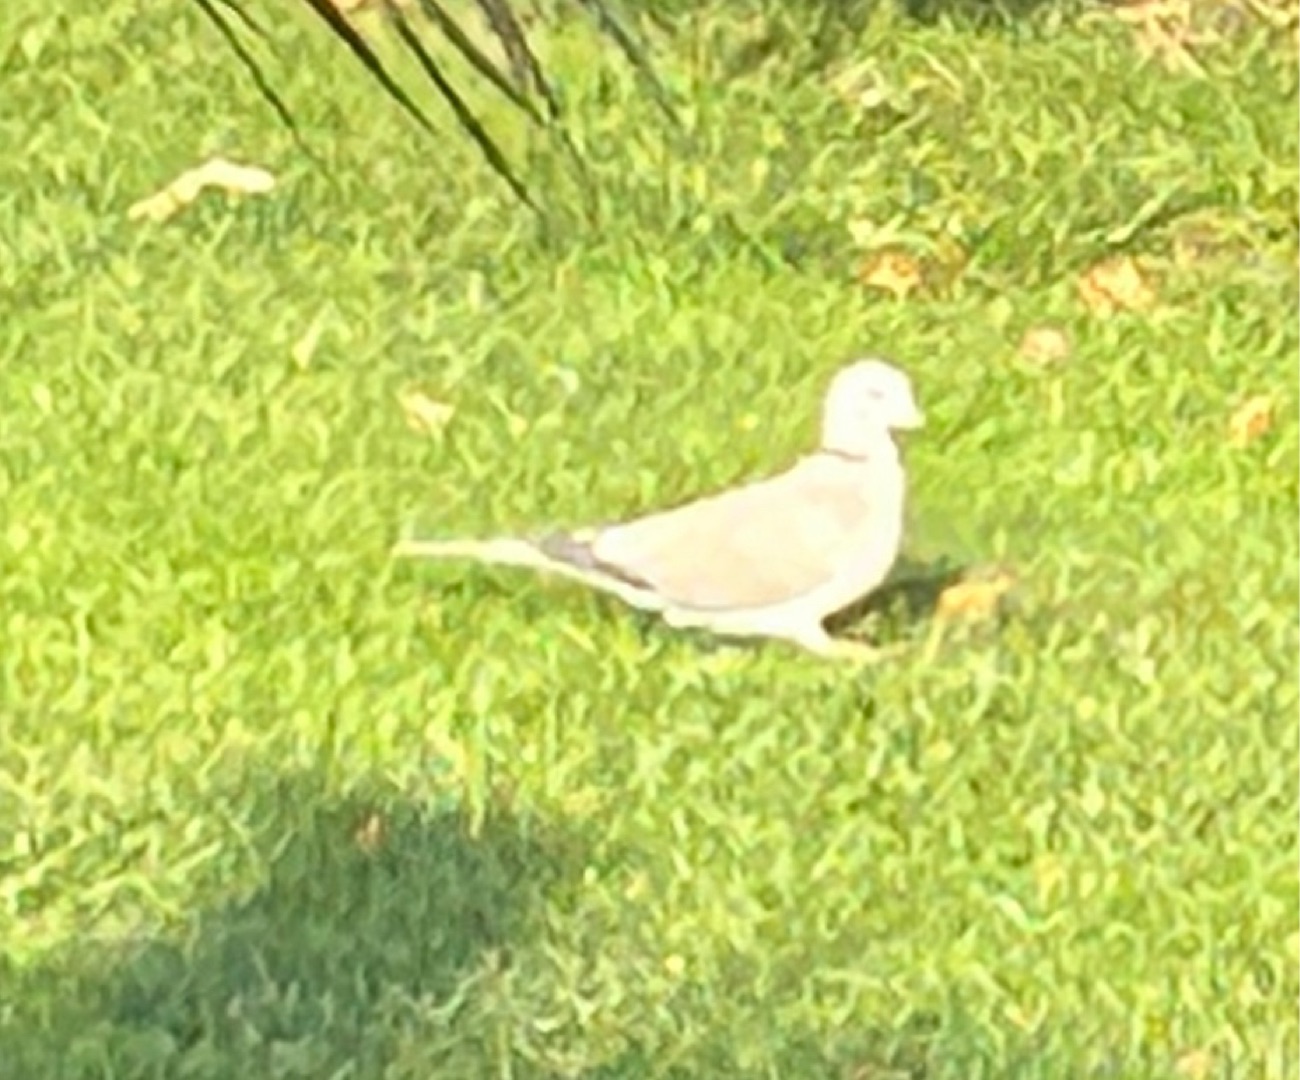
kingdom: Animalia
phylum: Chordata
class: Aves
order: Columbiformes
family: Columbidae
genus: Streptopelia
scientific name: Streptopelia decaocto
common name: Tyrkerdue
